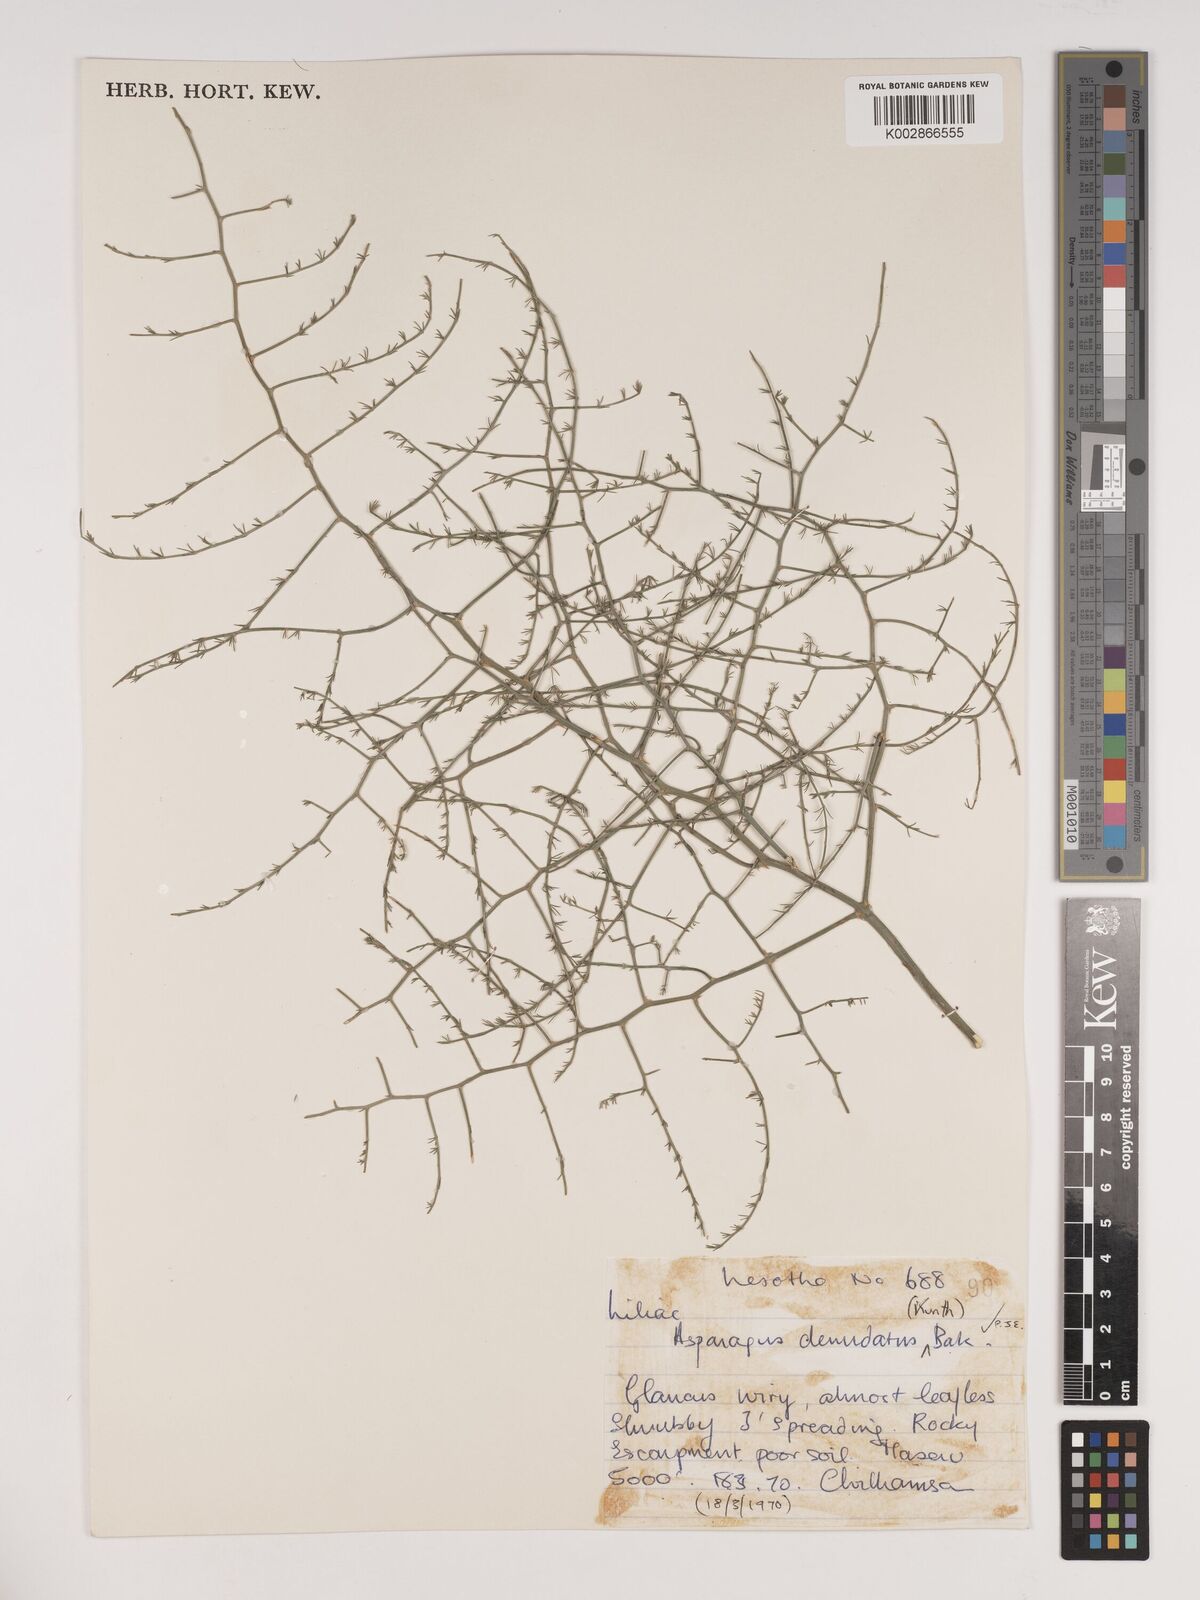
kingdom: Plantae
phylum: Tracheophyta
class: Liliopsida
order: Asparagales
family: Asparagaceae
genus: Asparagus
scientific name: Asparagus denudatus
